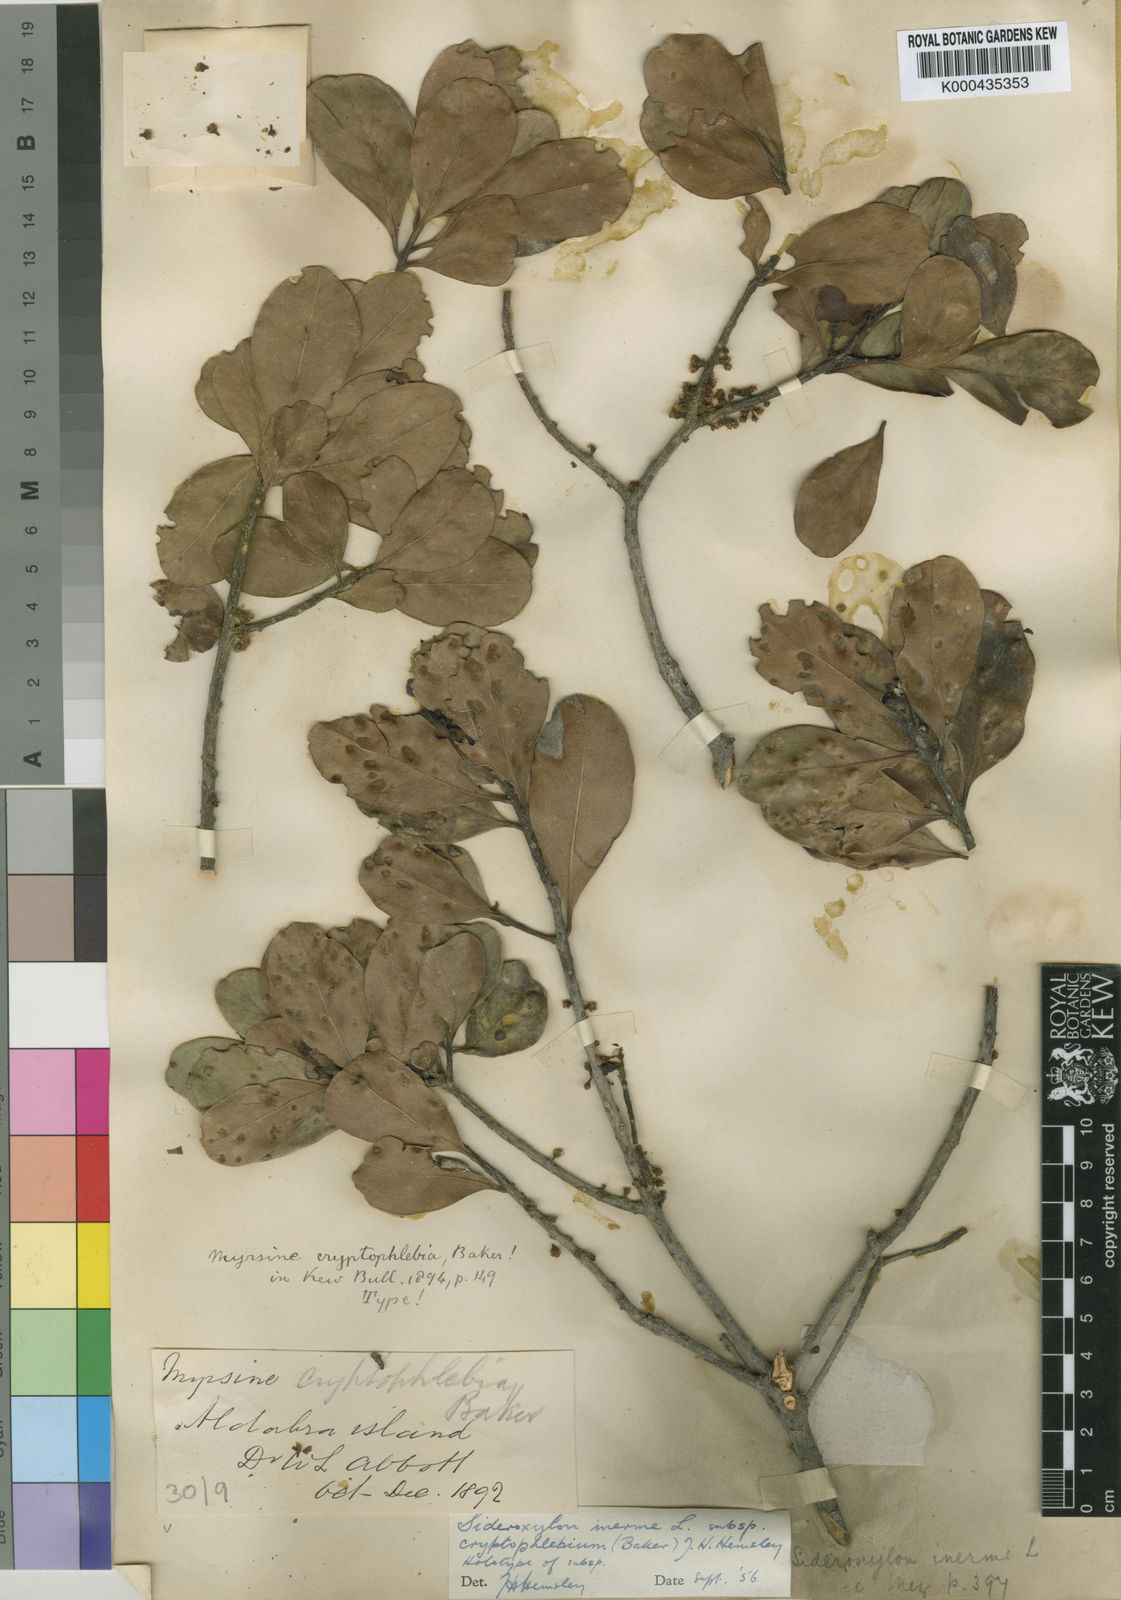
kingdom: Plantae
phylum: Tracheophyta
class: Magnoliopsida
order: Ericales
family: Sapotaceae
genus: Sideroxylon
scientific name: Sideroxylon inerme
